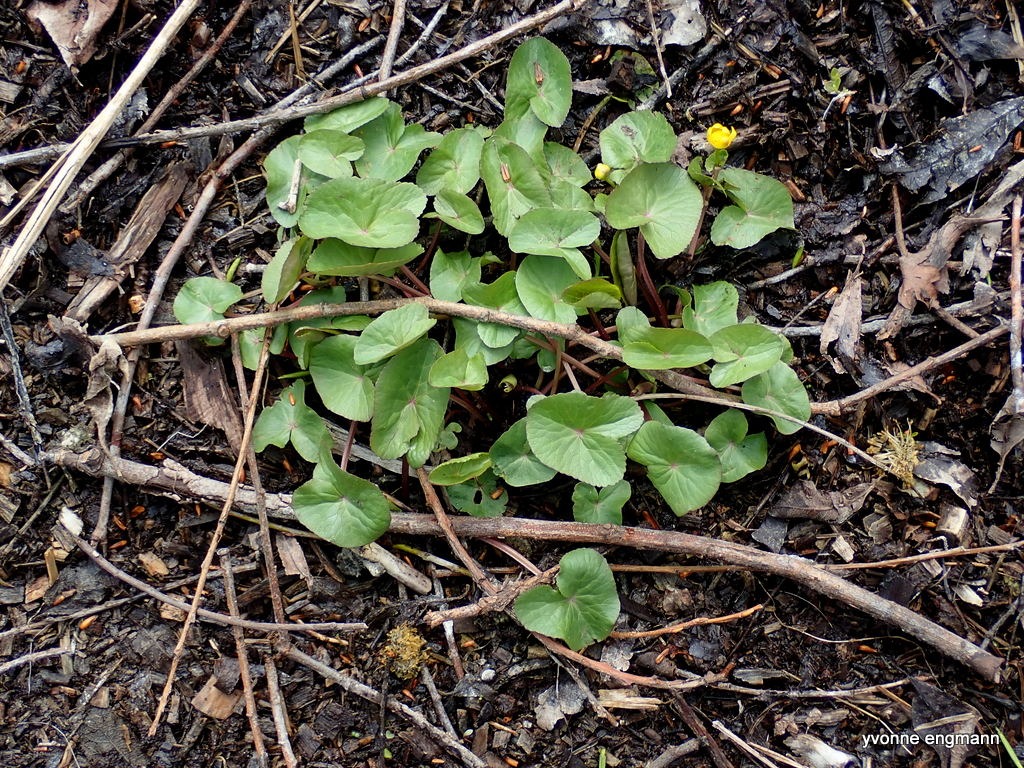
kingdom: Plantae
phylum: Tracheophyta
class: Magnoliopsida
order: Ranunculales
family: Ranunculaceae
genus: Caltha
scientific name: Caltha palustris
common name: Eng-kabbeleje
